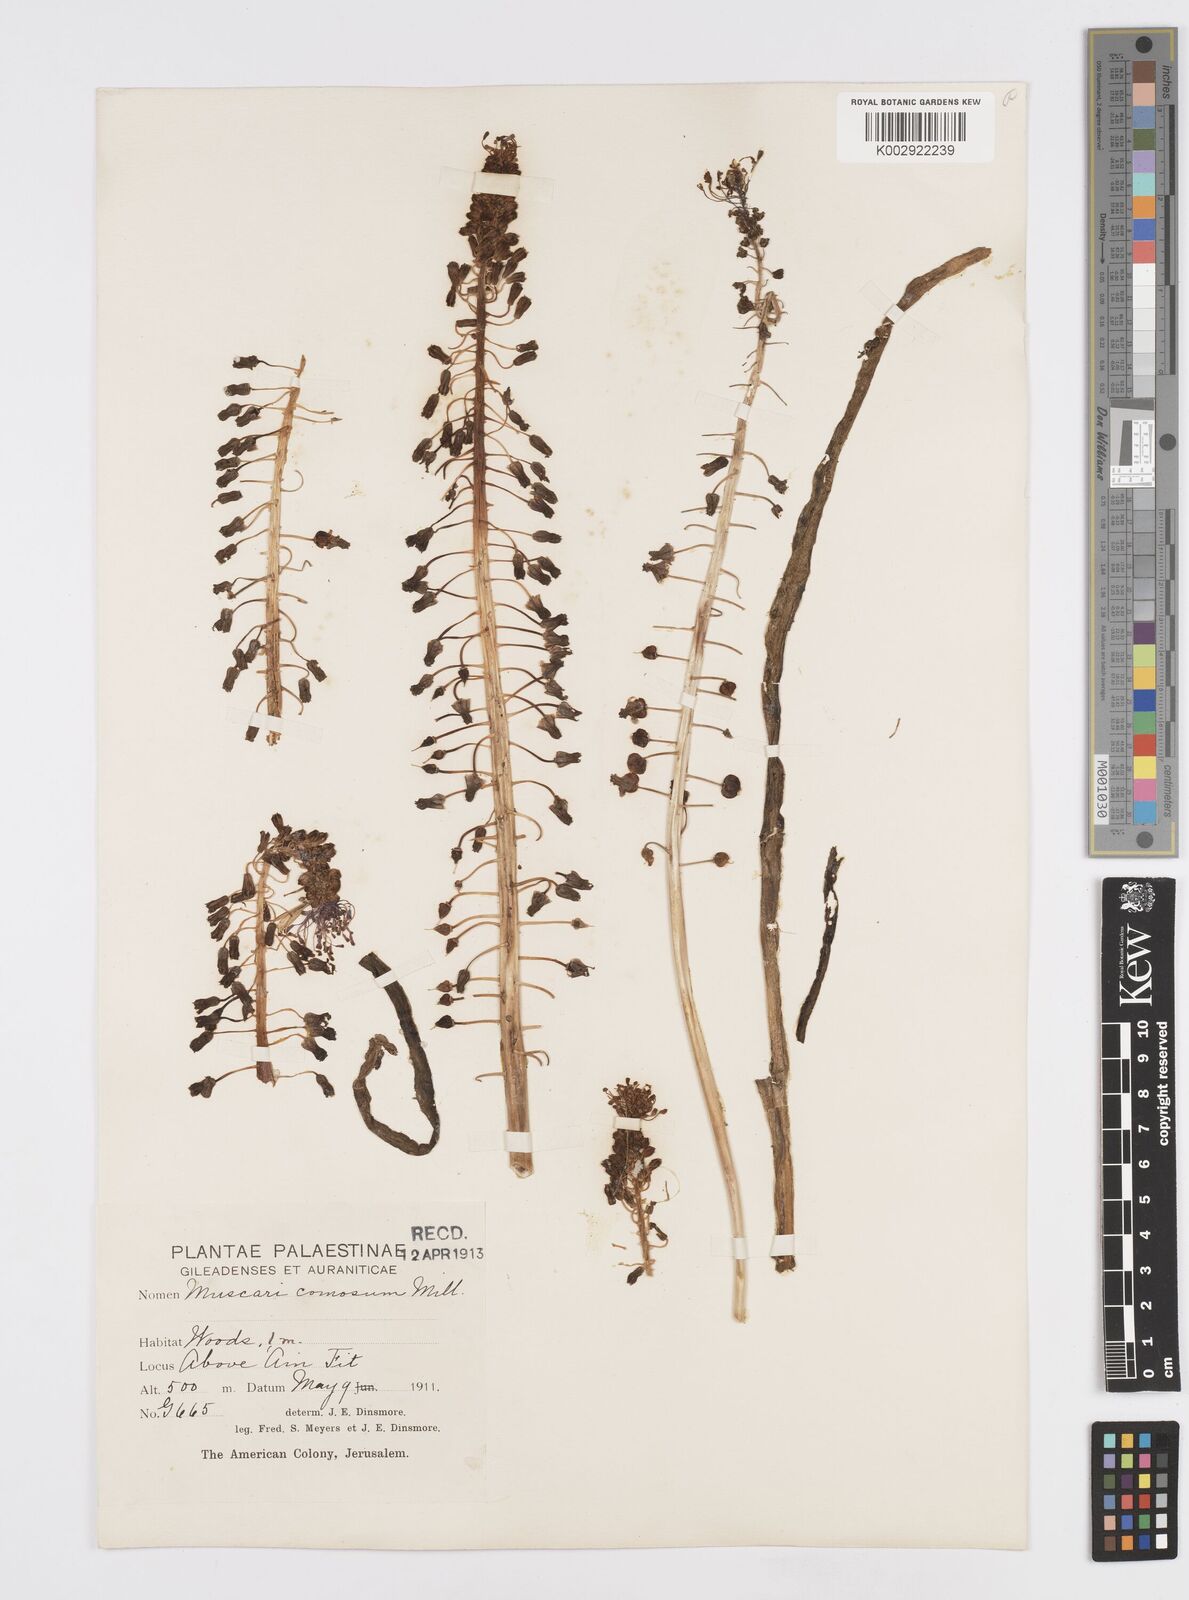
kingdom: Plantae
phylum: Tracheophyta
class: Liliopsida
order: Asparagales
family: Asparagaceae
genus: Muscari
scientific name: Muscari comosum
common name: Tassel hyacinth
